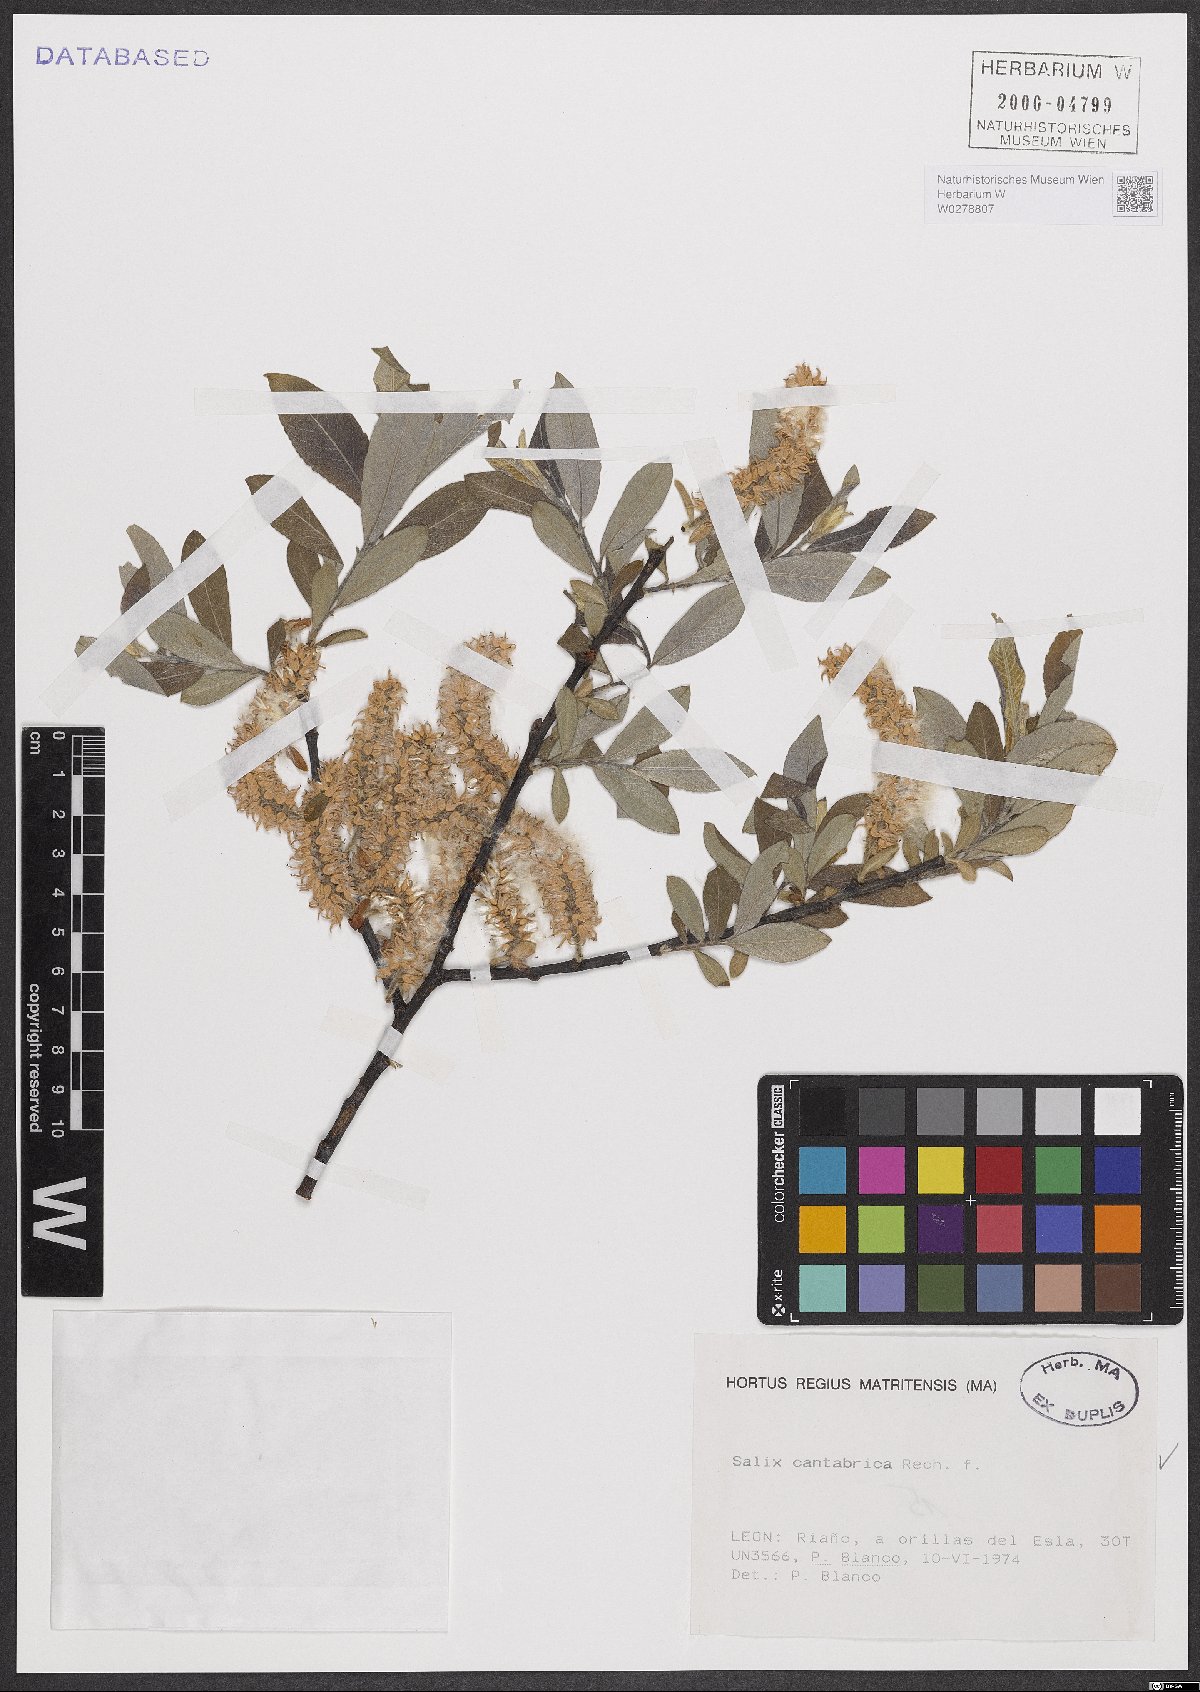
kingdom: Plantae
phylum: Tracheophyta
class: Magnoliopsida
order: Malpighiales
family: Salicaceae
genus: Salix
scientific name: Salix cantabrica
